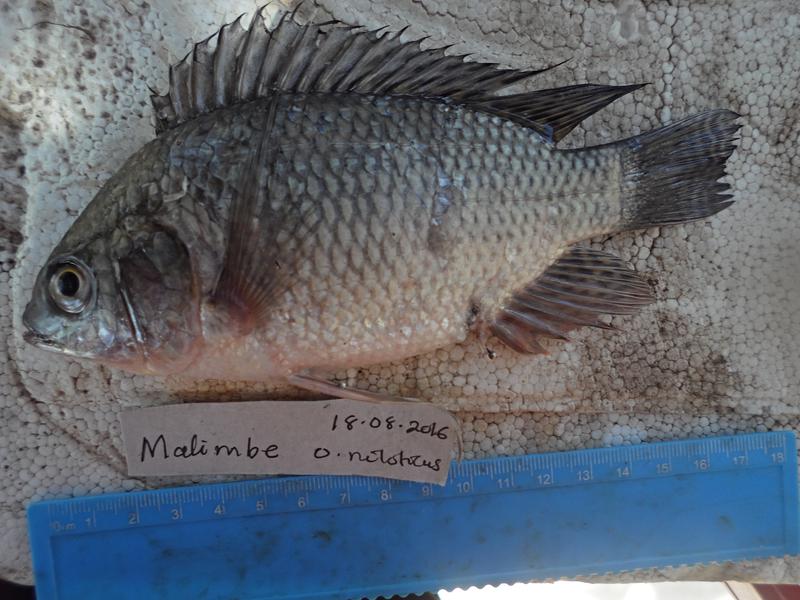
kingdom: Animalia
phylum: Chordata
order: Perciformes
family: Cichlidae
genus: Oreochromis
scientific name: Oreochromis niloticus
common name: Nile tilapia
